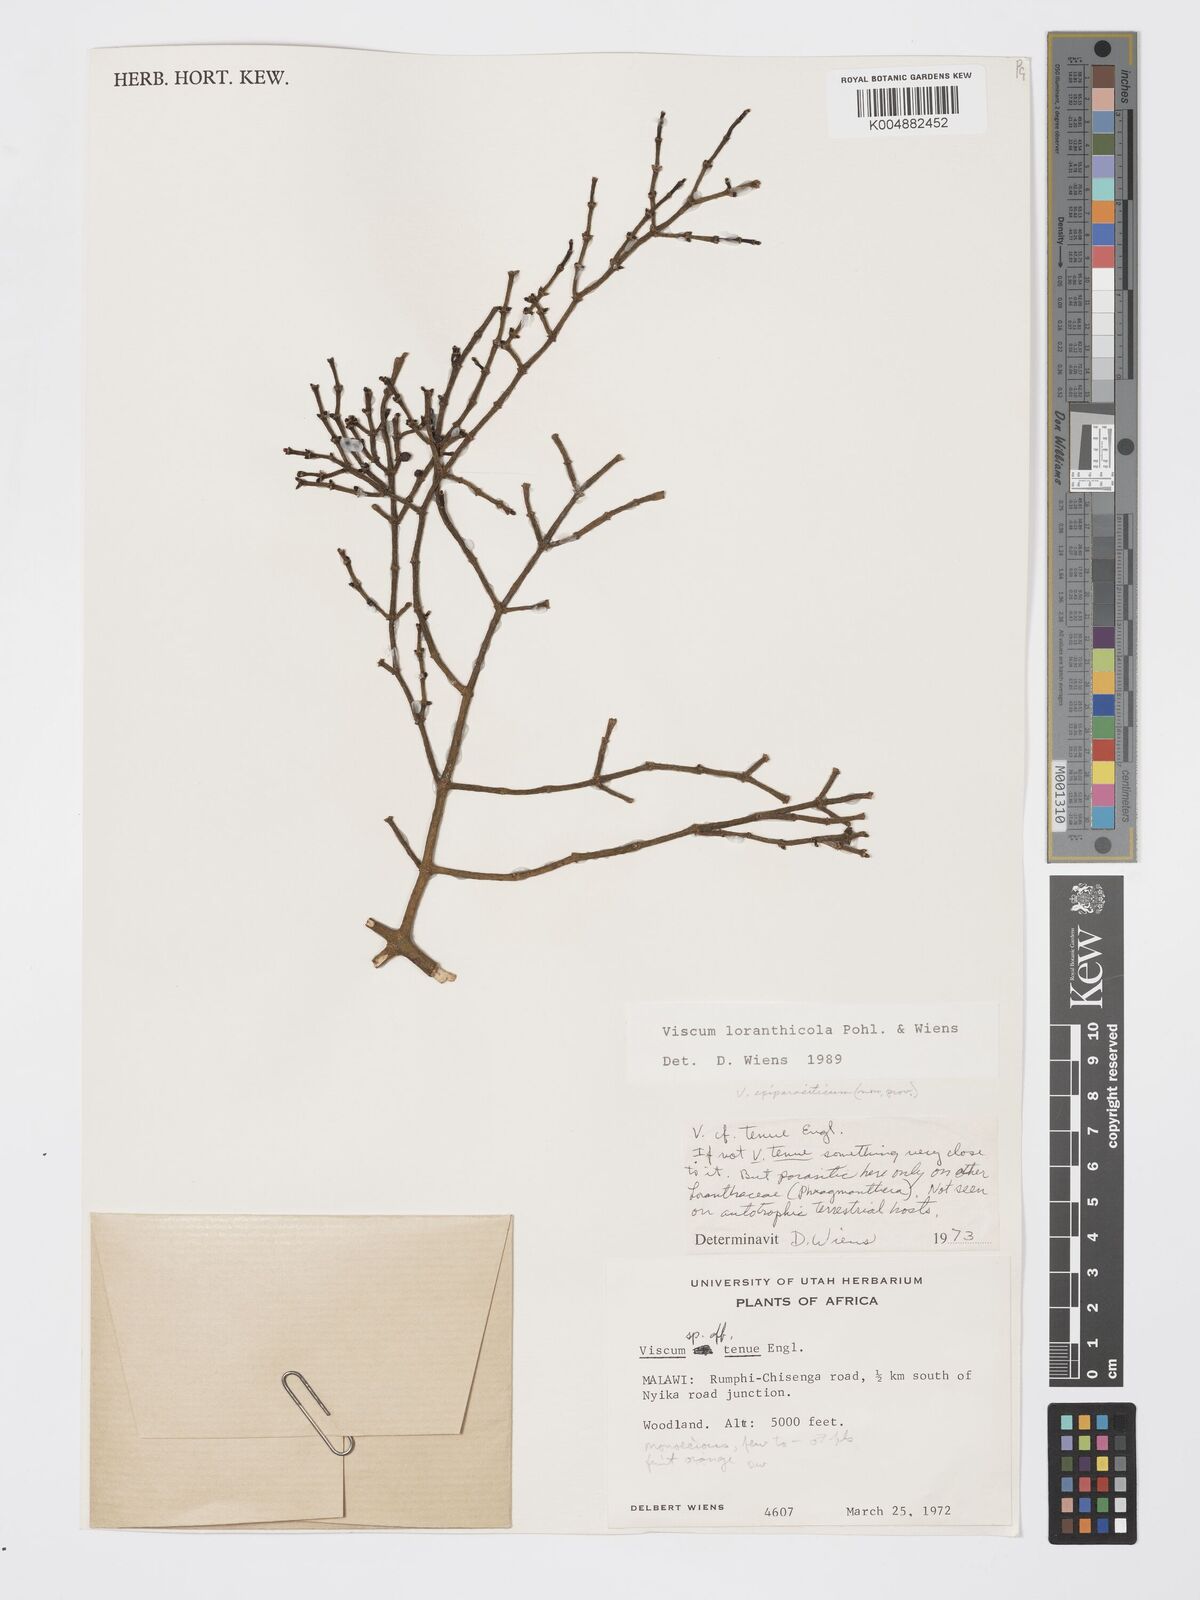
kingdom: Plantae
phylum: Tracheophyta
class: Magnoliopsida
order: Santalales
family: Viscaceae
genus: Viscum
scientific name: Viscum loranthicola
